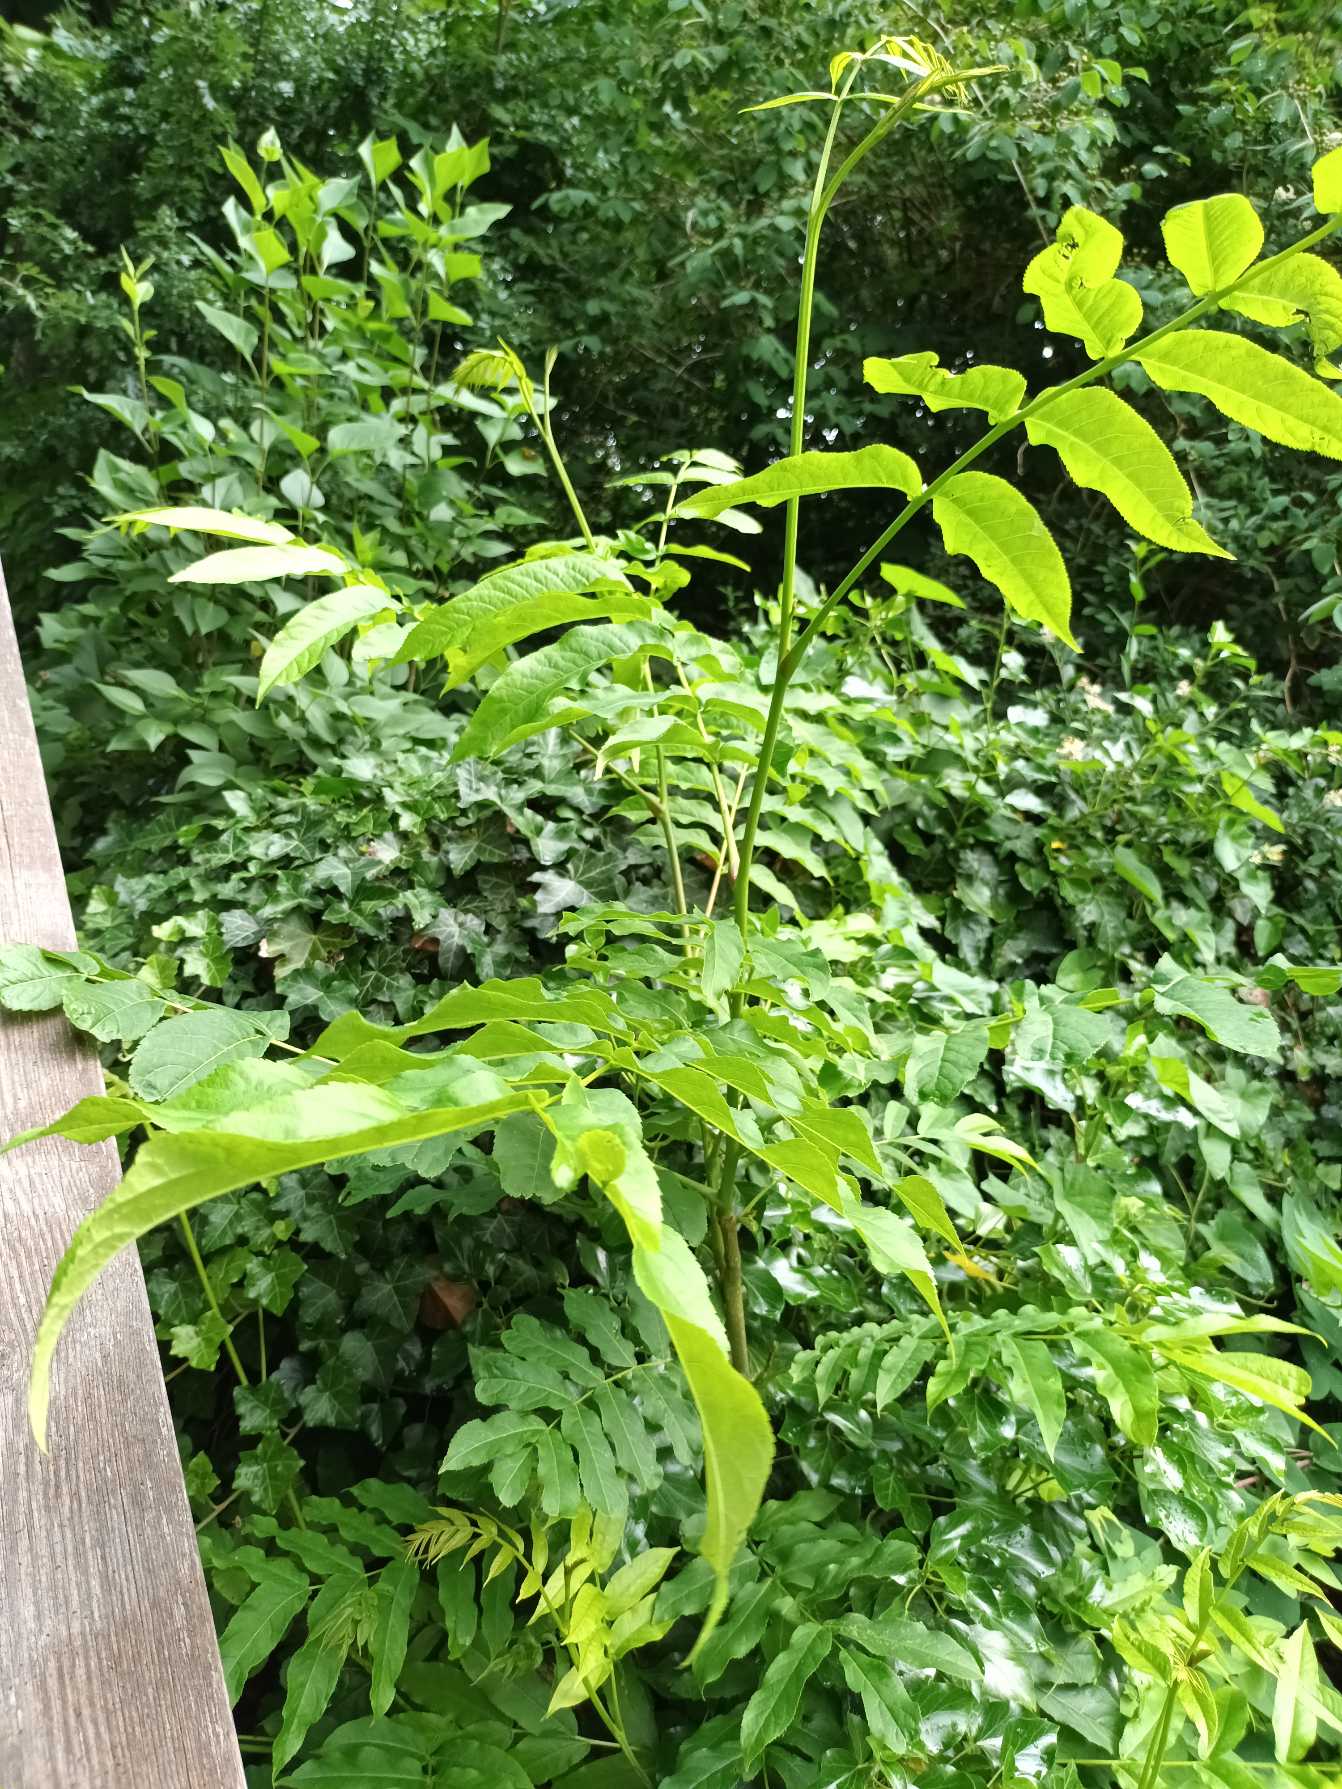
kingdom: Plantae
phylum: Tracheophyta
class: Magnoliopsida
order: Fagales
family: Juglandaceae
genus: Pterocarya
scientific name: Pterocarya fraxinifolia
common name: Kaukasisk vingevalnød
